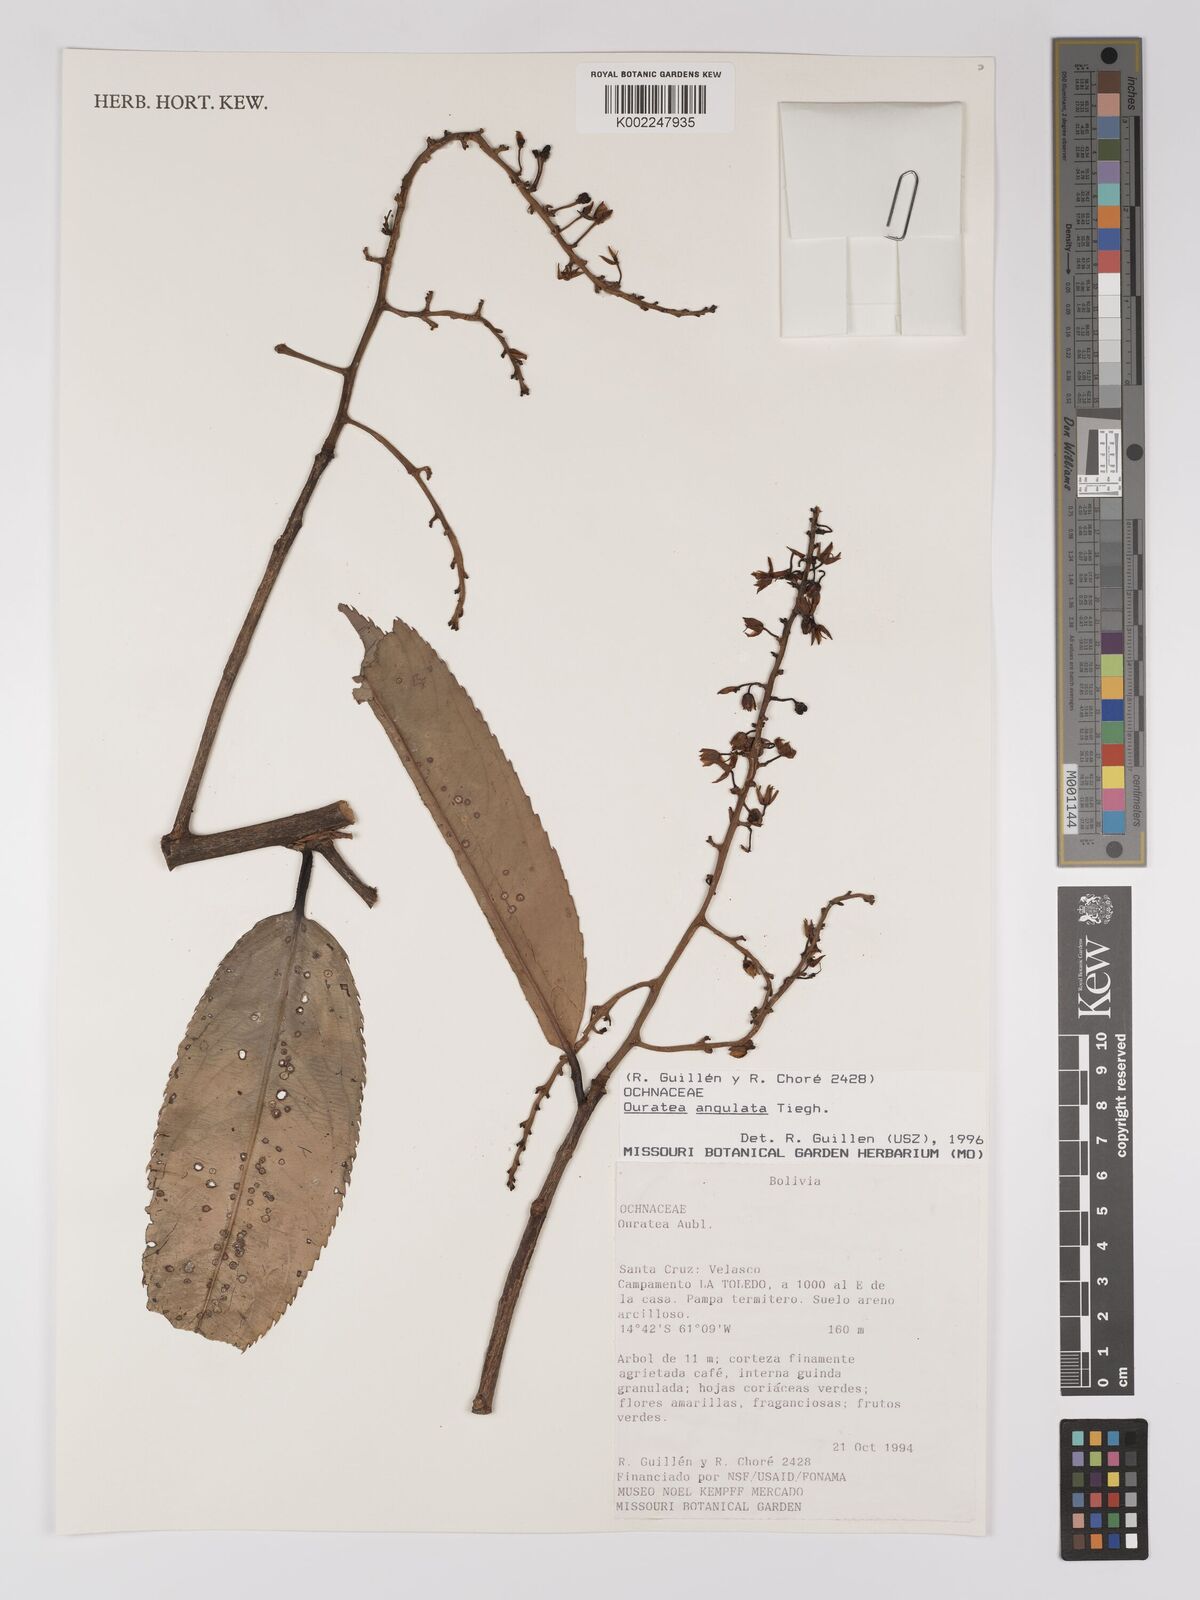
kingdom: Plantae
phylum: Tracheophyta
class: Magnoliopsida
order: Malpighiales
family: Ochnaceae
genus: Ouratea
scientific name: Ouratea castaneifolia
